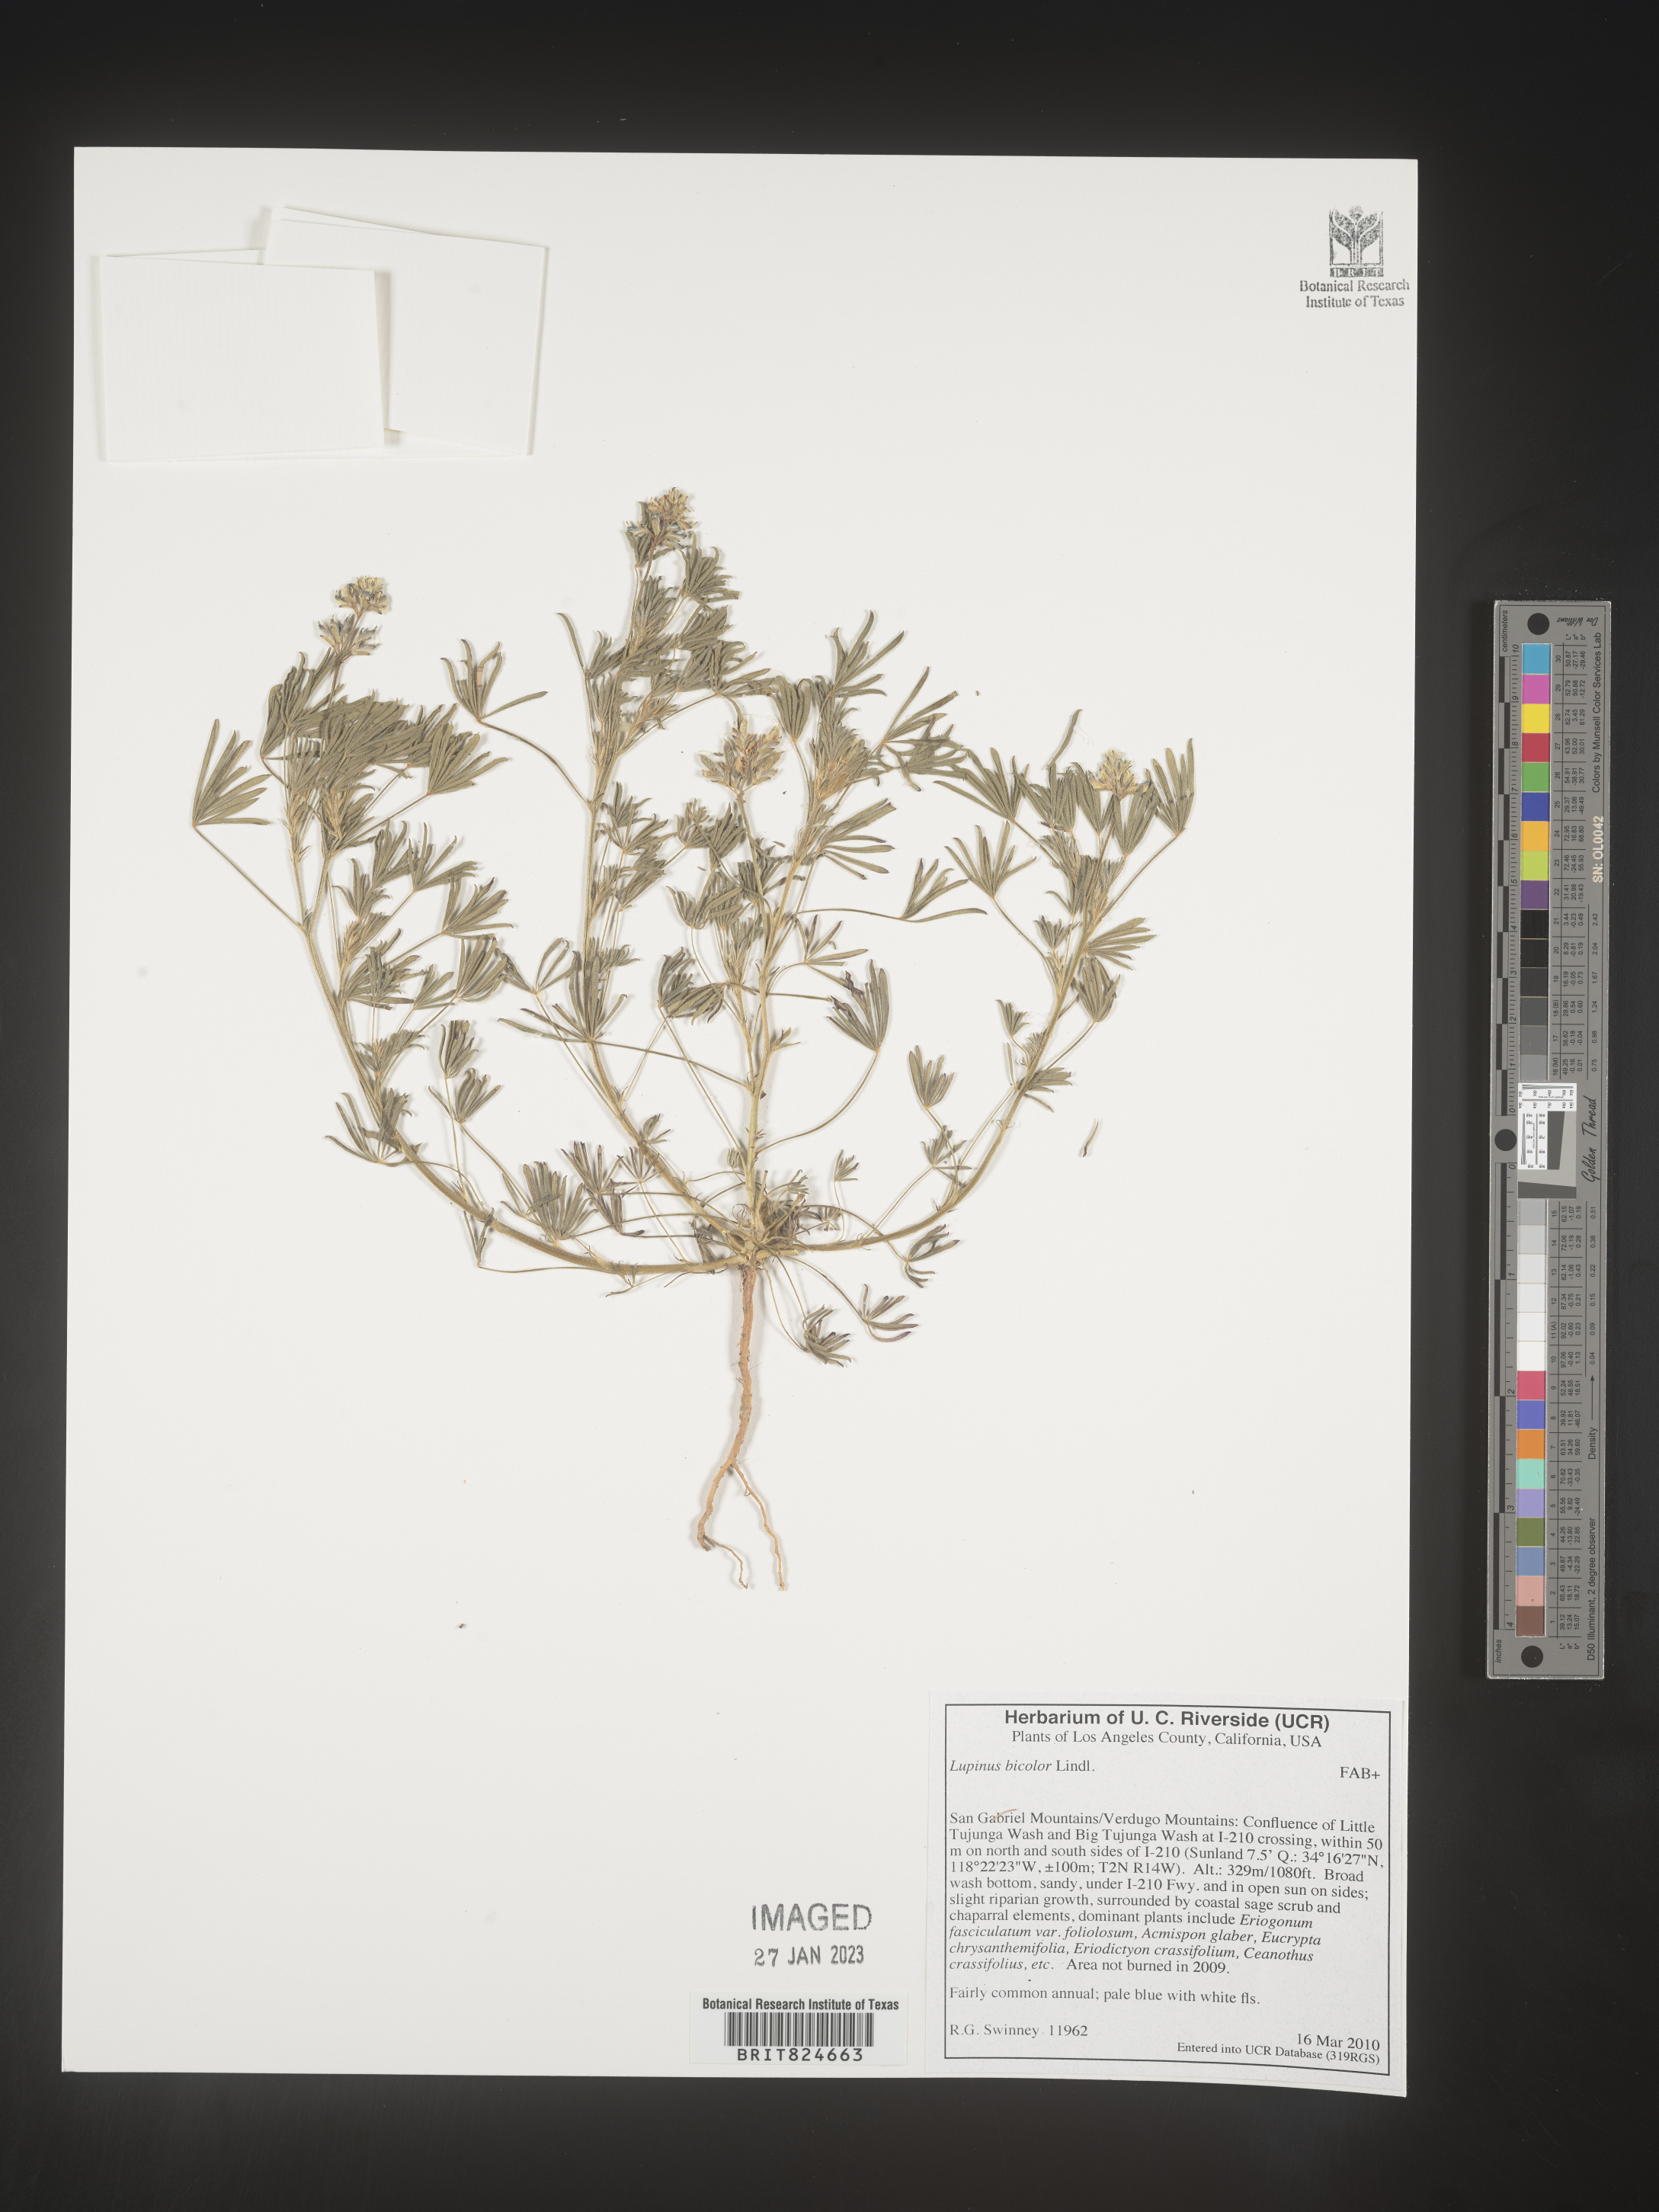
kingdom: Plantae
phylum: Tracheophyta
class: Magnoliopsida
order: Fabales
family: Fabaceae
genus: Lupinus
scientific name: Lupinus bicolor
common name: Miniature lupine
